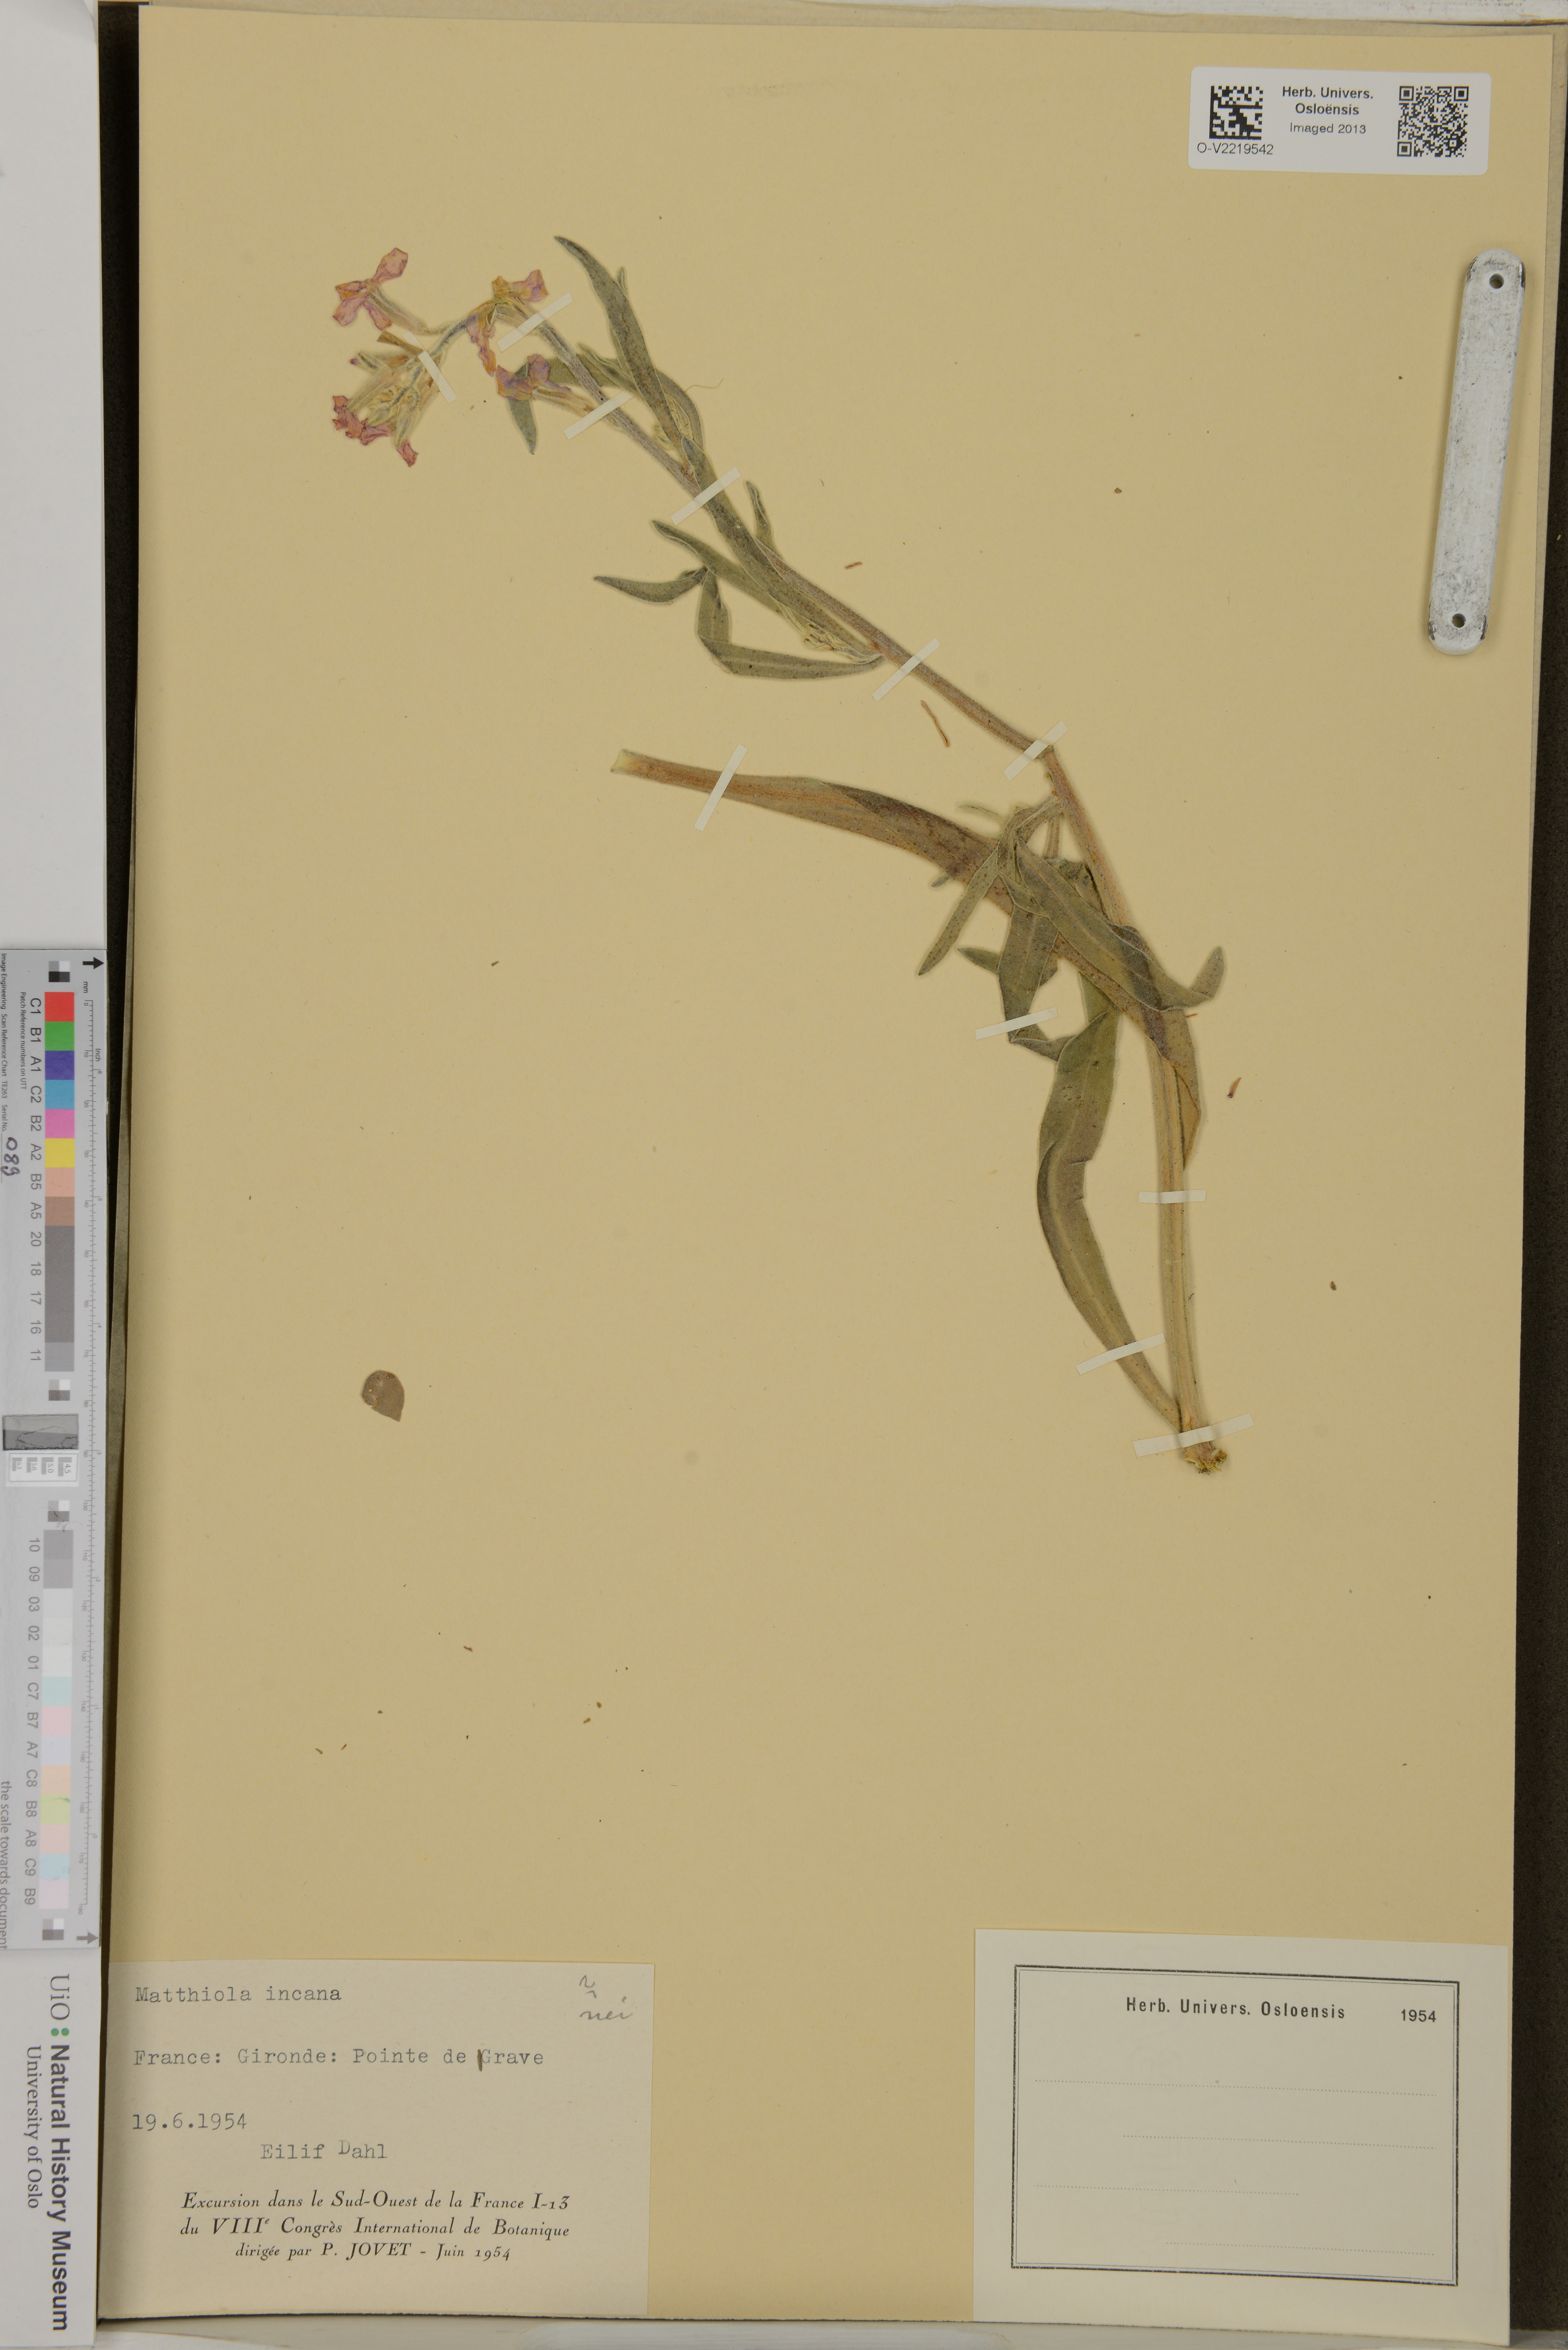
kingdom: Plantae
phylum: Tracheophyta
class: Magnoliopsida
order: Brassicales
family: Brassicaceae
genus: Matthiola
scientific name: Matthiola incana
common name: Hoary stock
